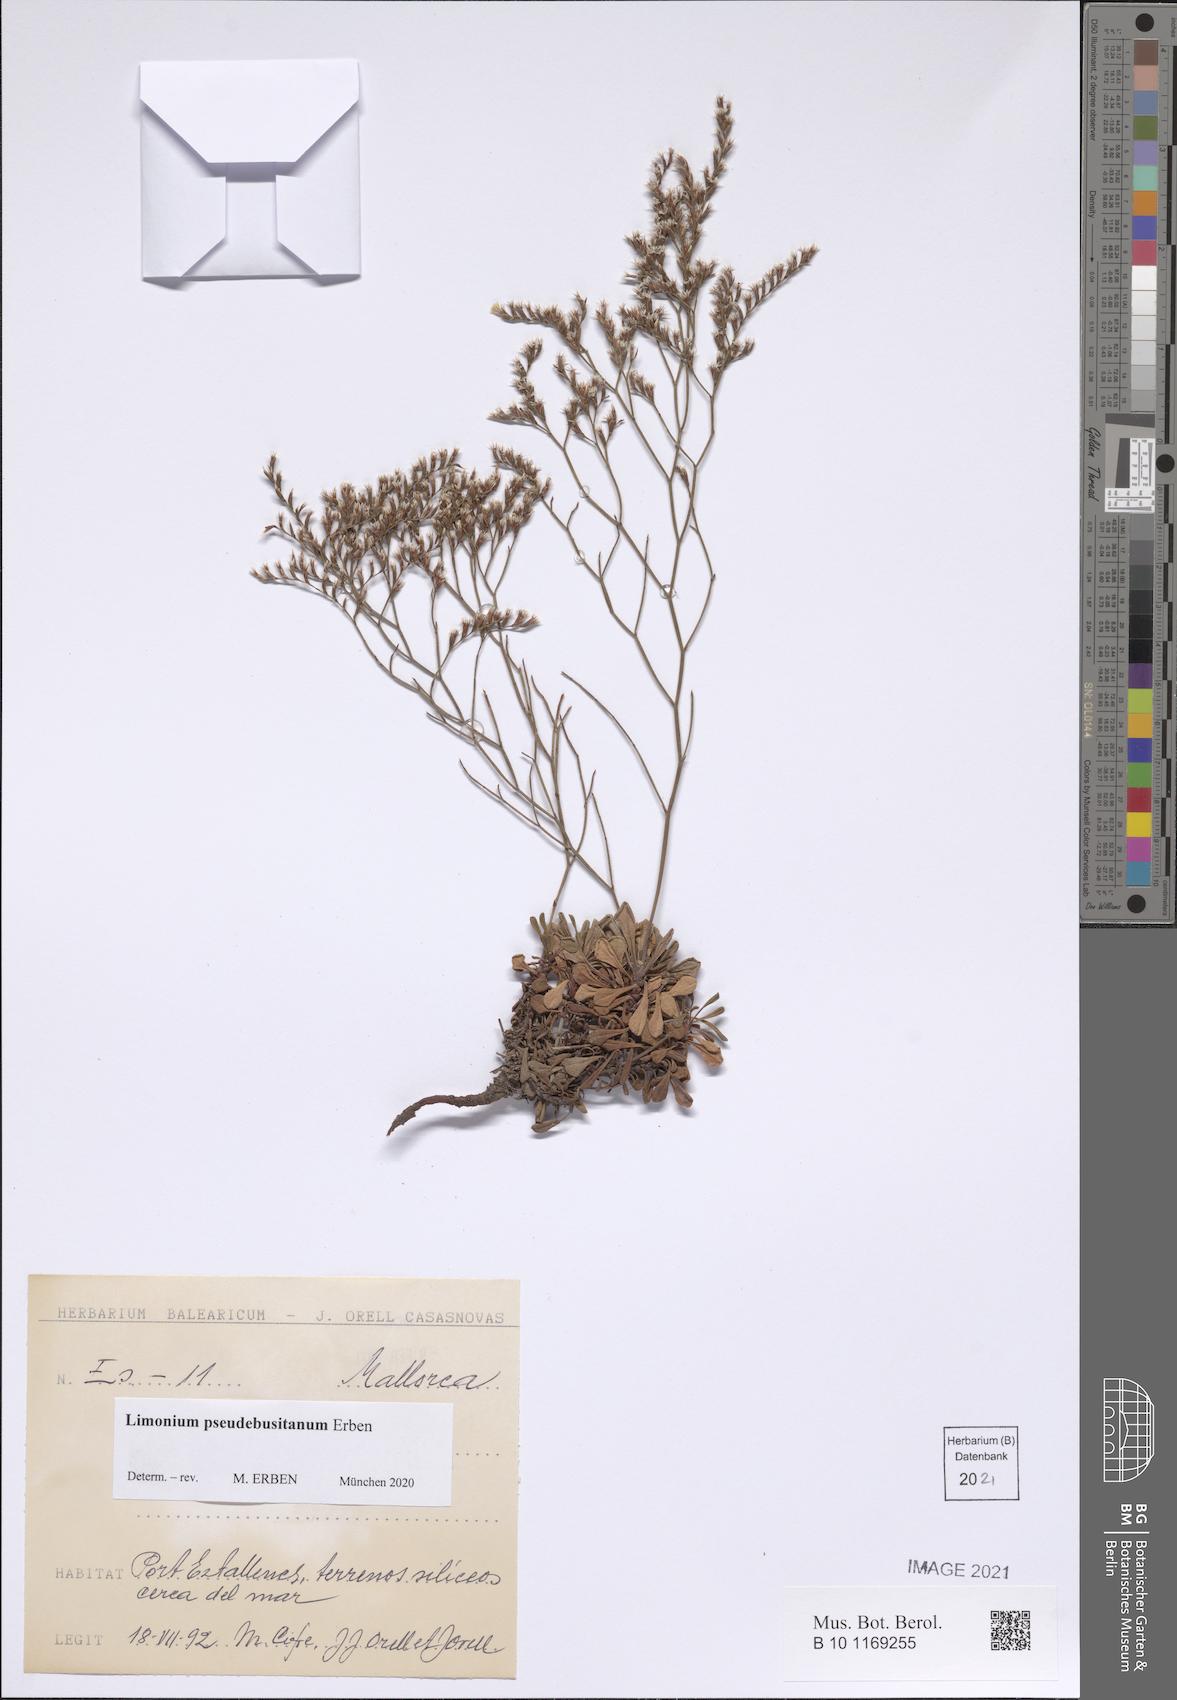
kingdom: Plantae
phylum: Tracheophyta
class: Magnoliopsida
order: Caryophyllales
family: Plumbaginaceae
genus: Limonium
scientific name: Limonium pseudebusitanum
